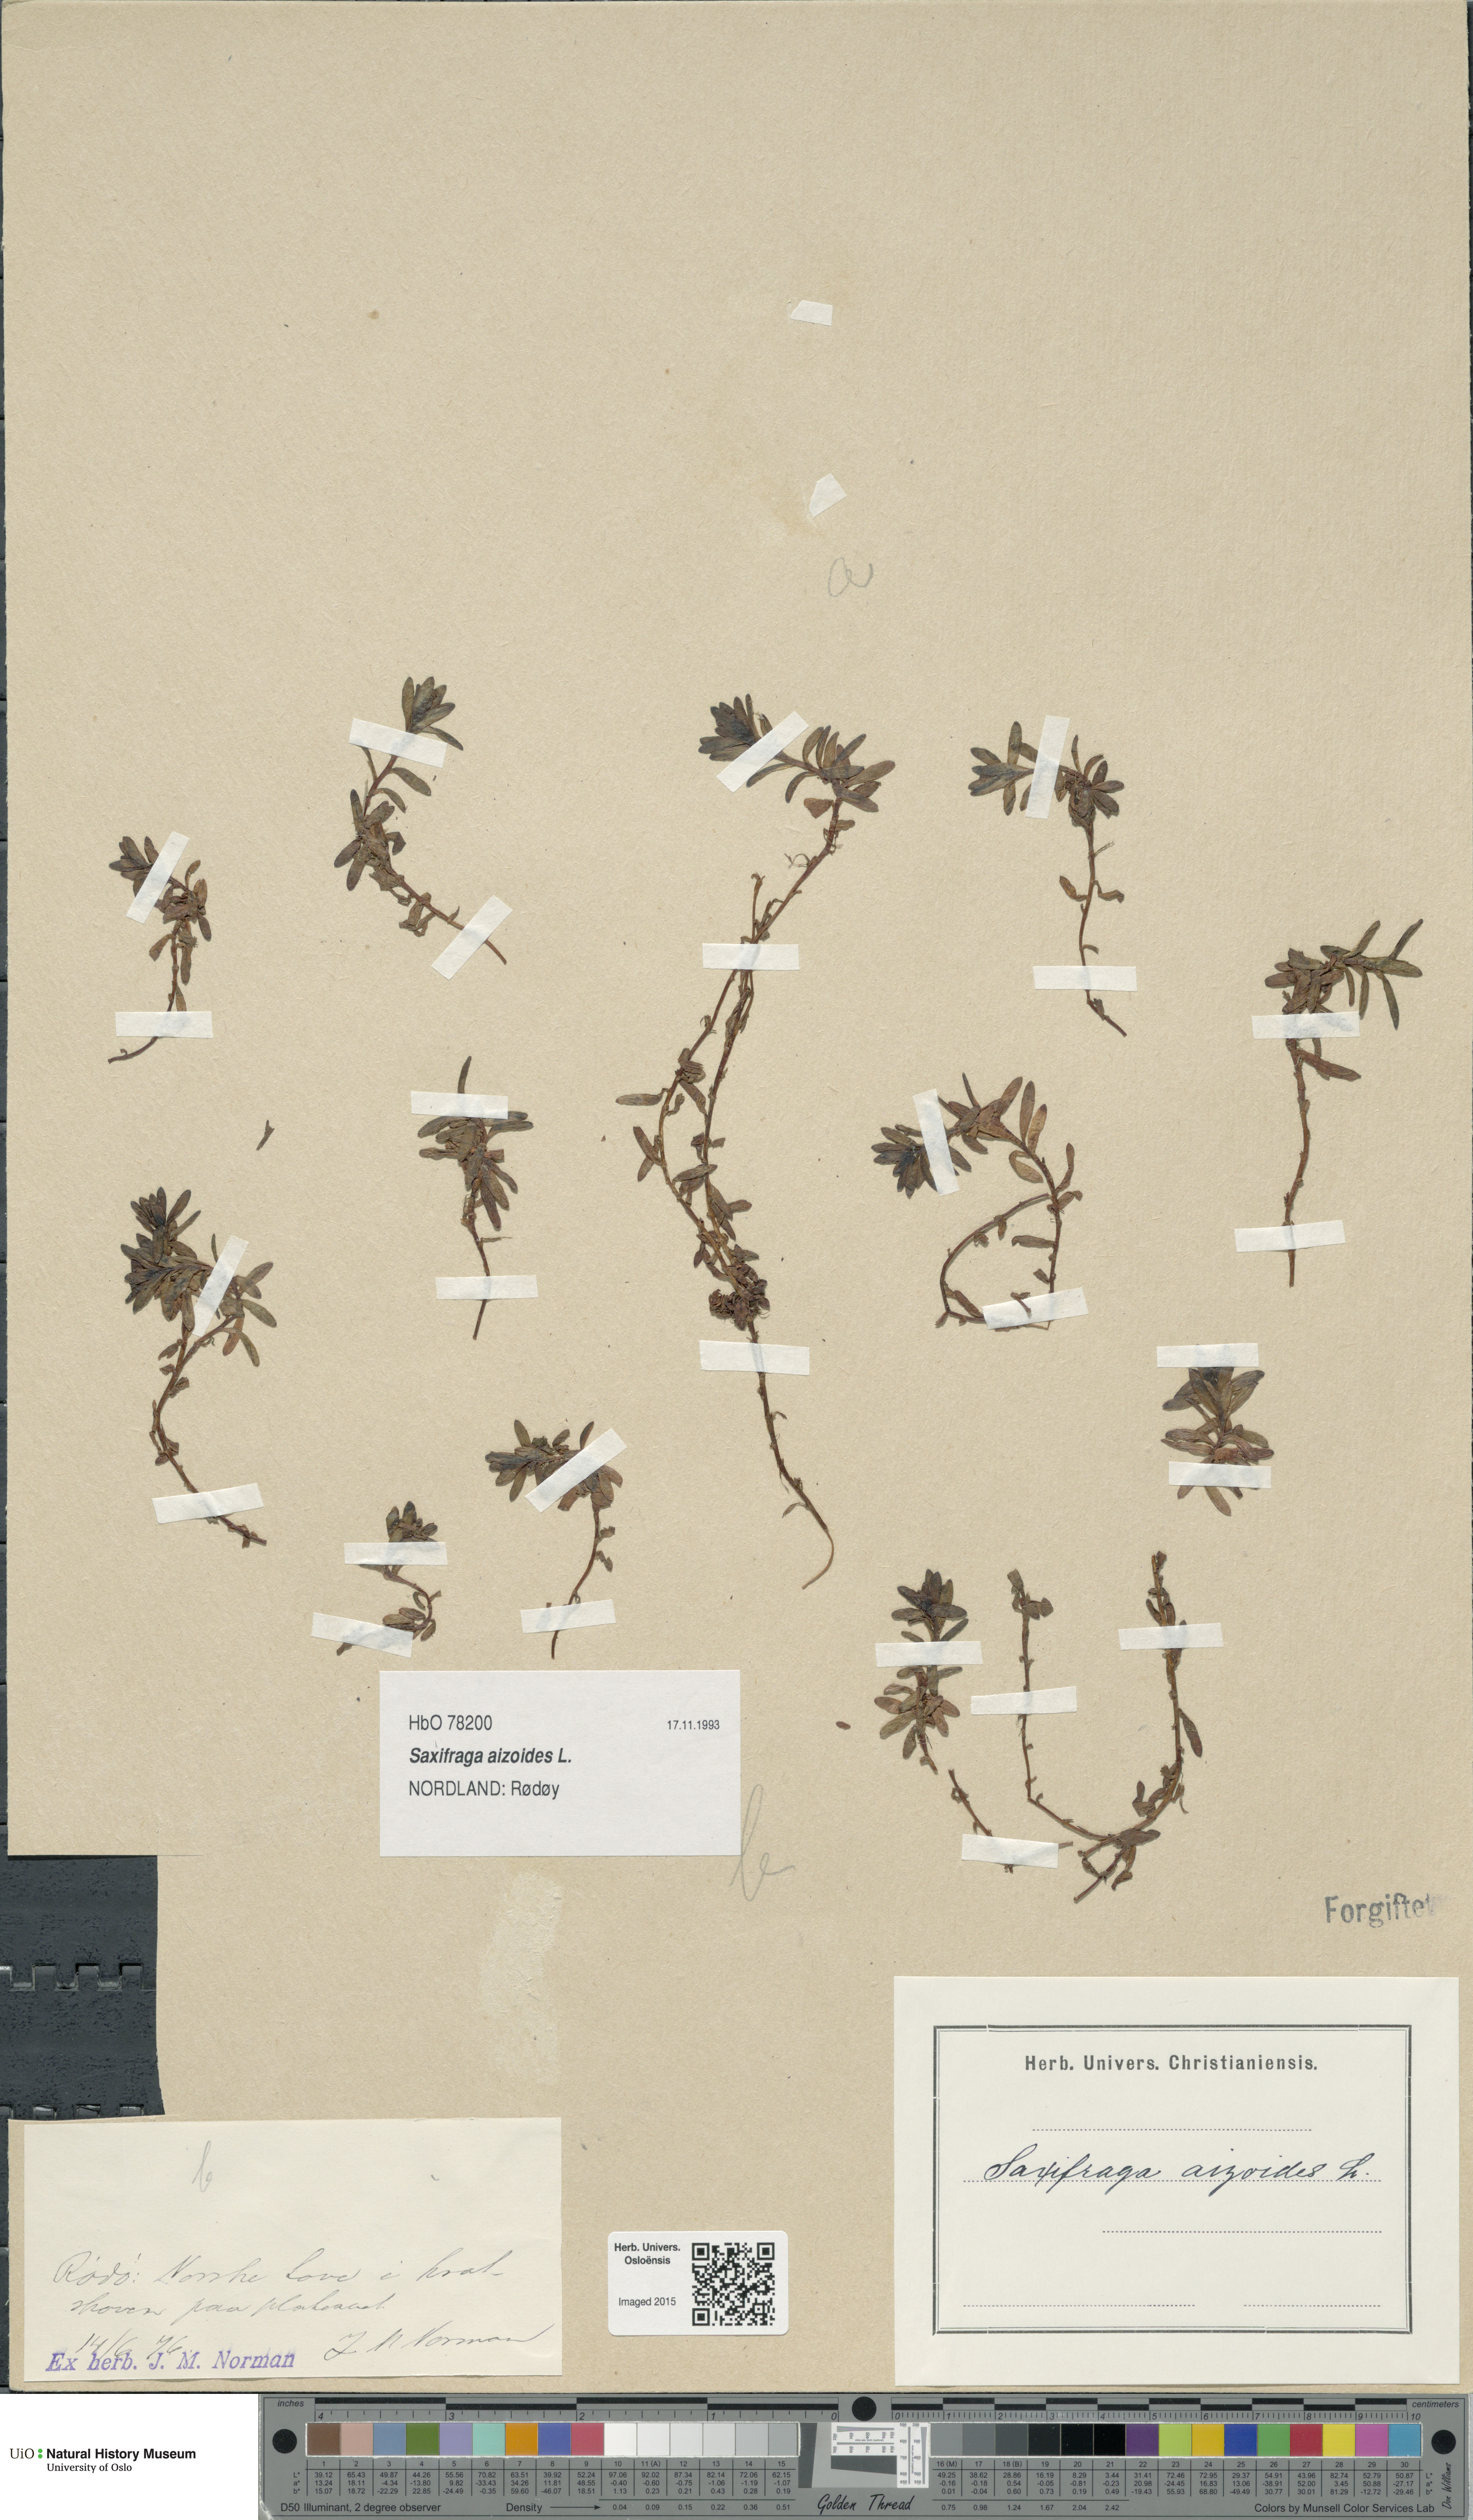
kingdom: Plantae
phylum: Tracheophyta
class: Magnoliopsida
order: Saxifragales
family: Saxifragaceae
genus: Saxifraga
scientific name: Saxifraga aizoides
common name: Yellow mountain saxifrage
